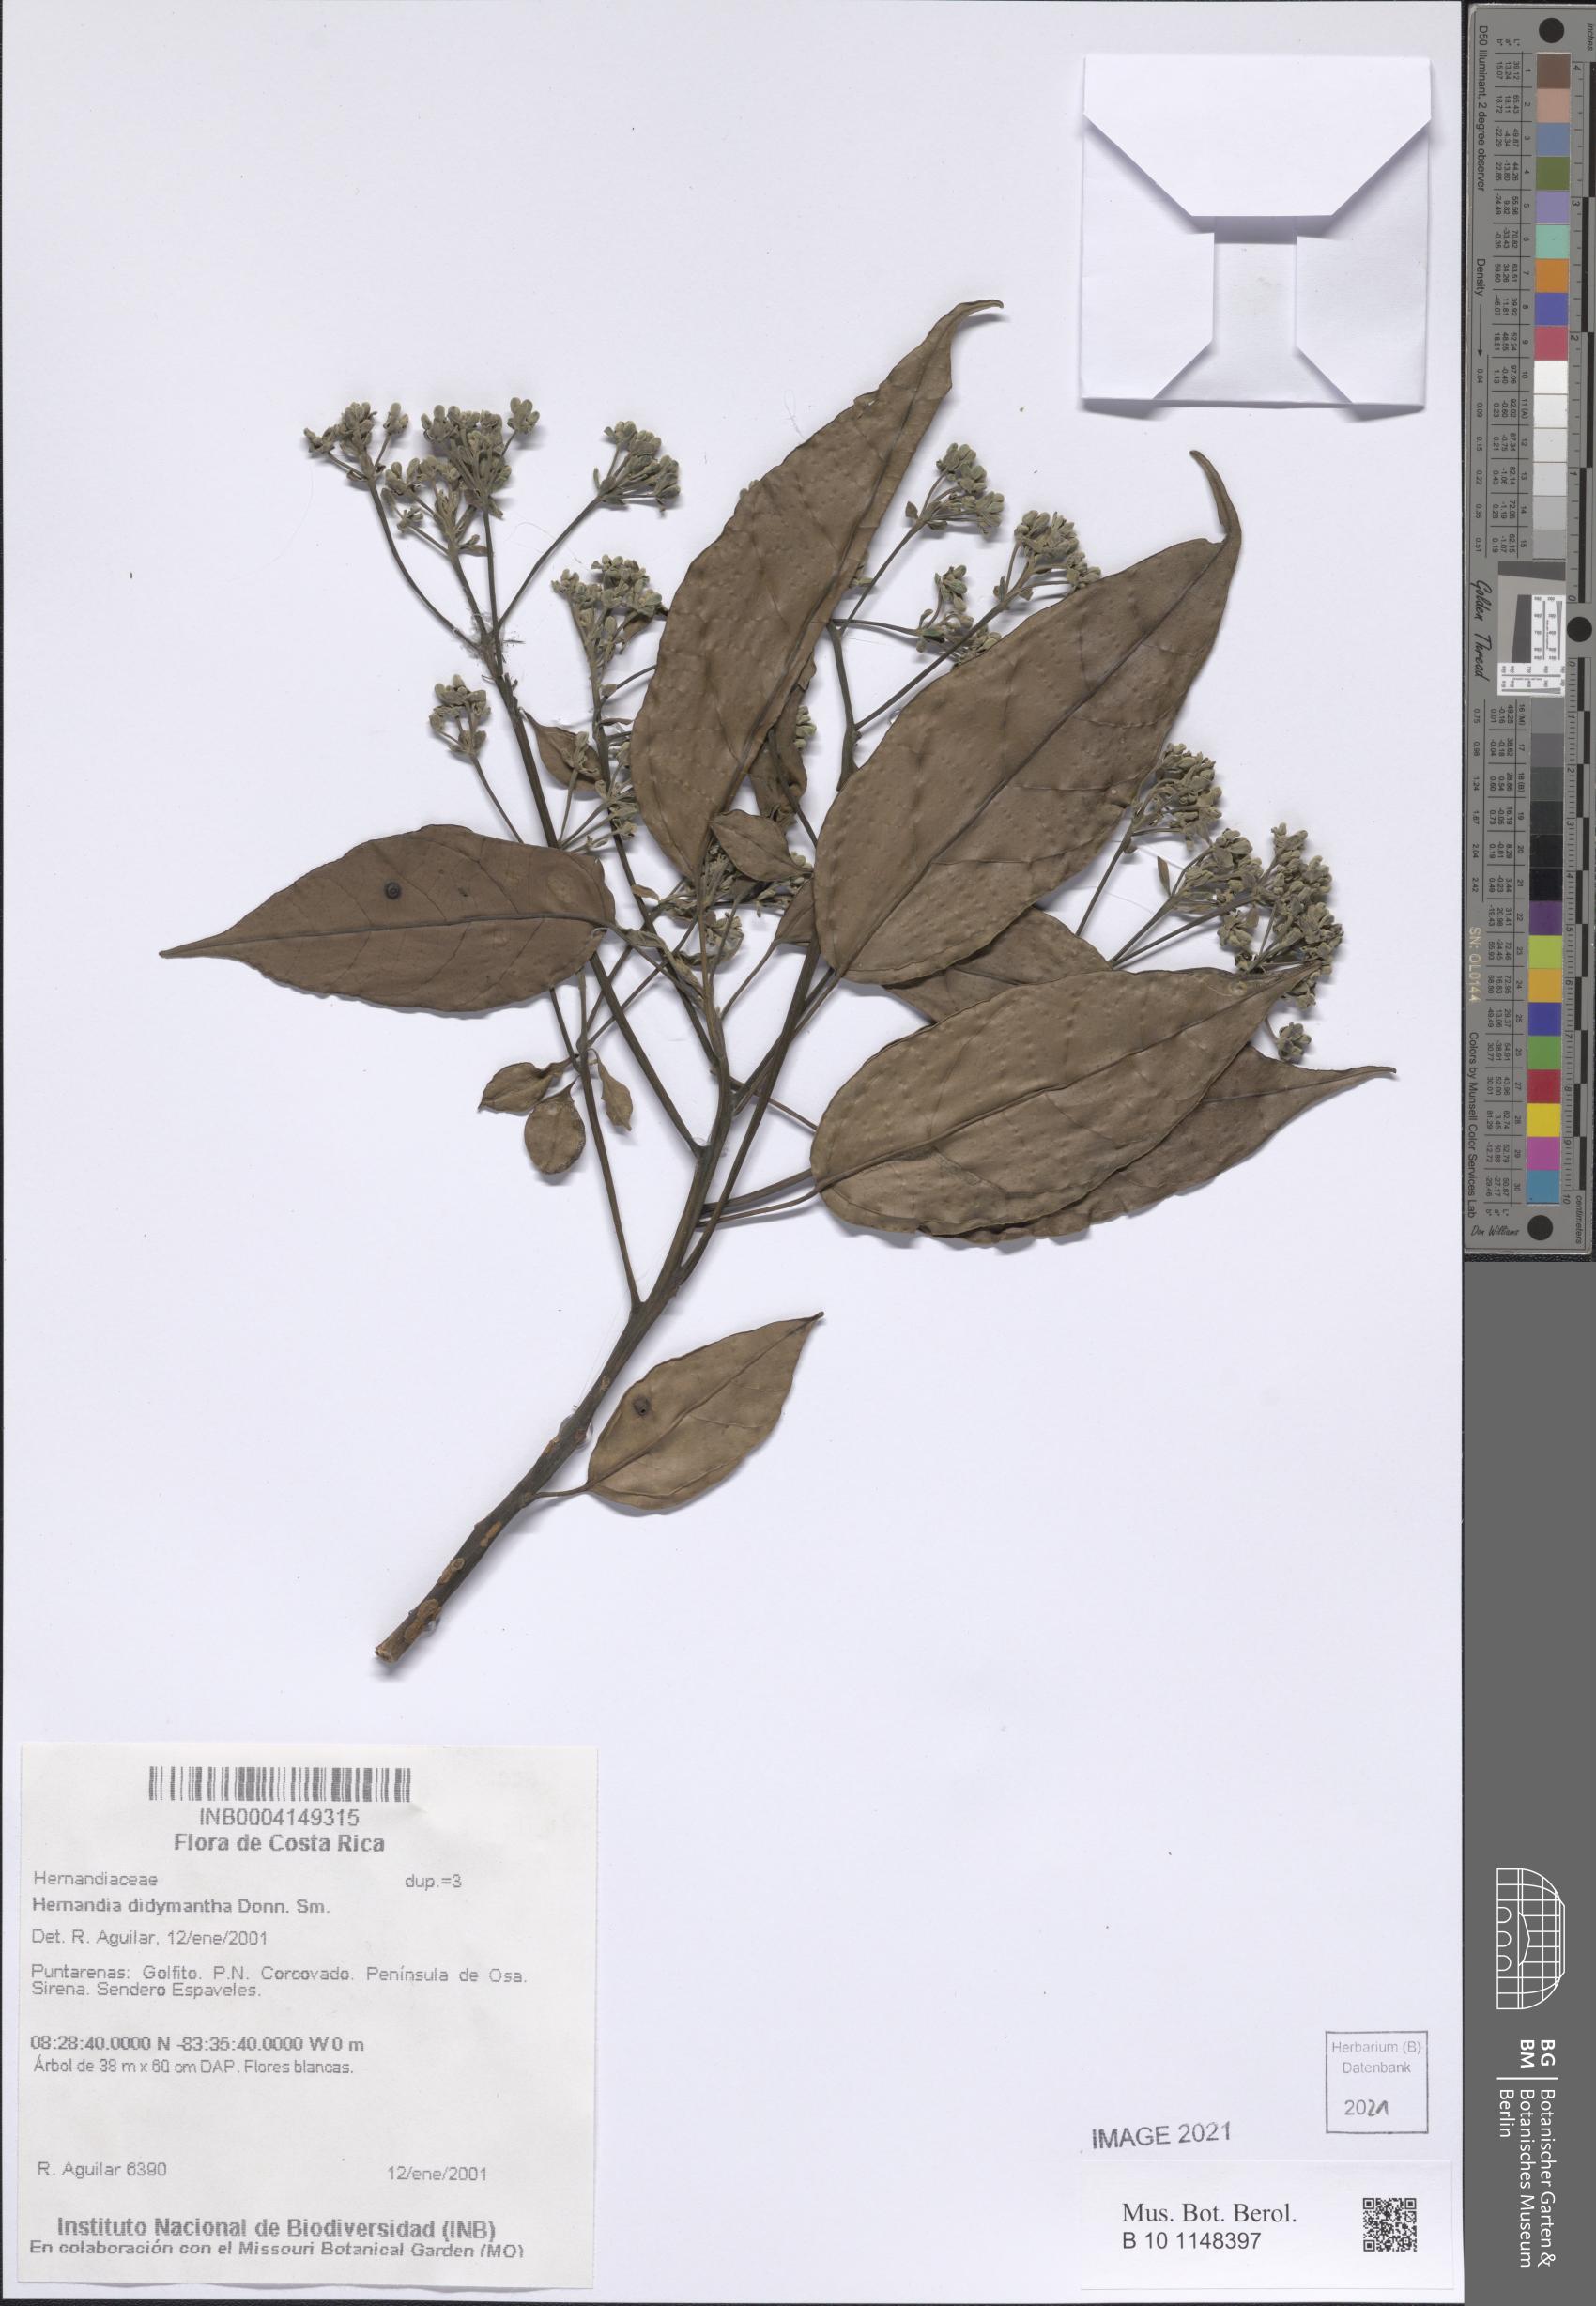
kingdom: Plantae
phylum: Tracheophyta
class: Magnoliopsida
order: Laurales
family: Hernandiaceae
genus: Hernandia
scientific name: Hernandia didymantha
